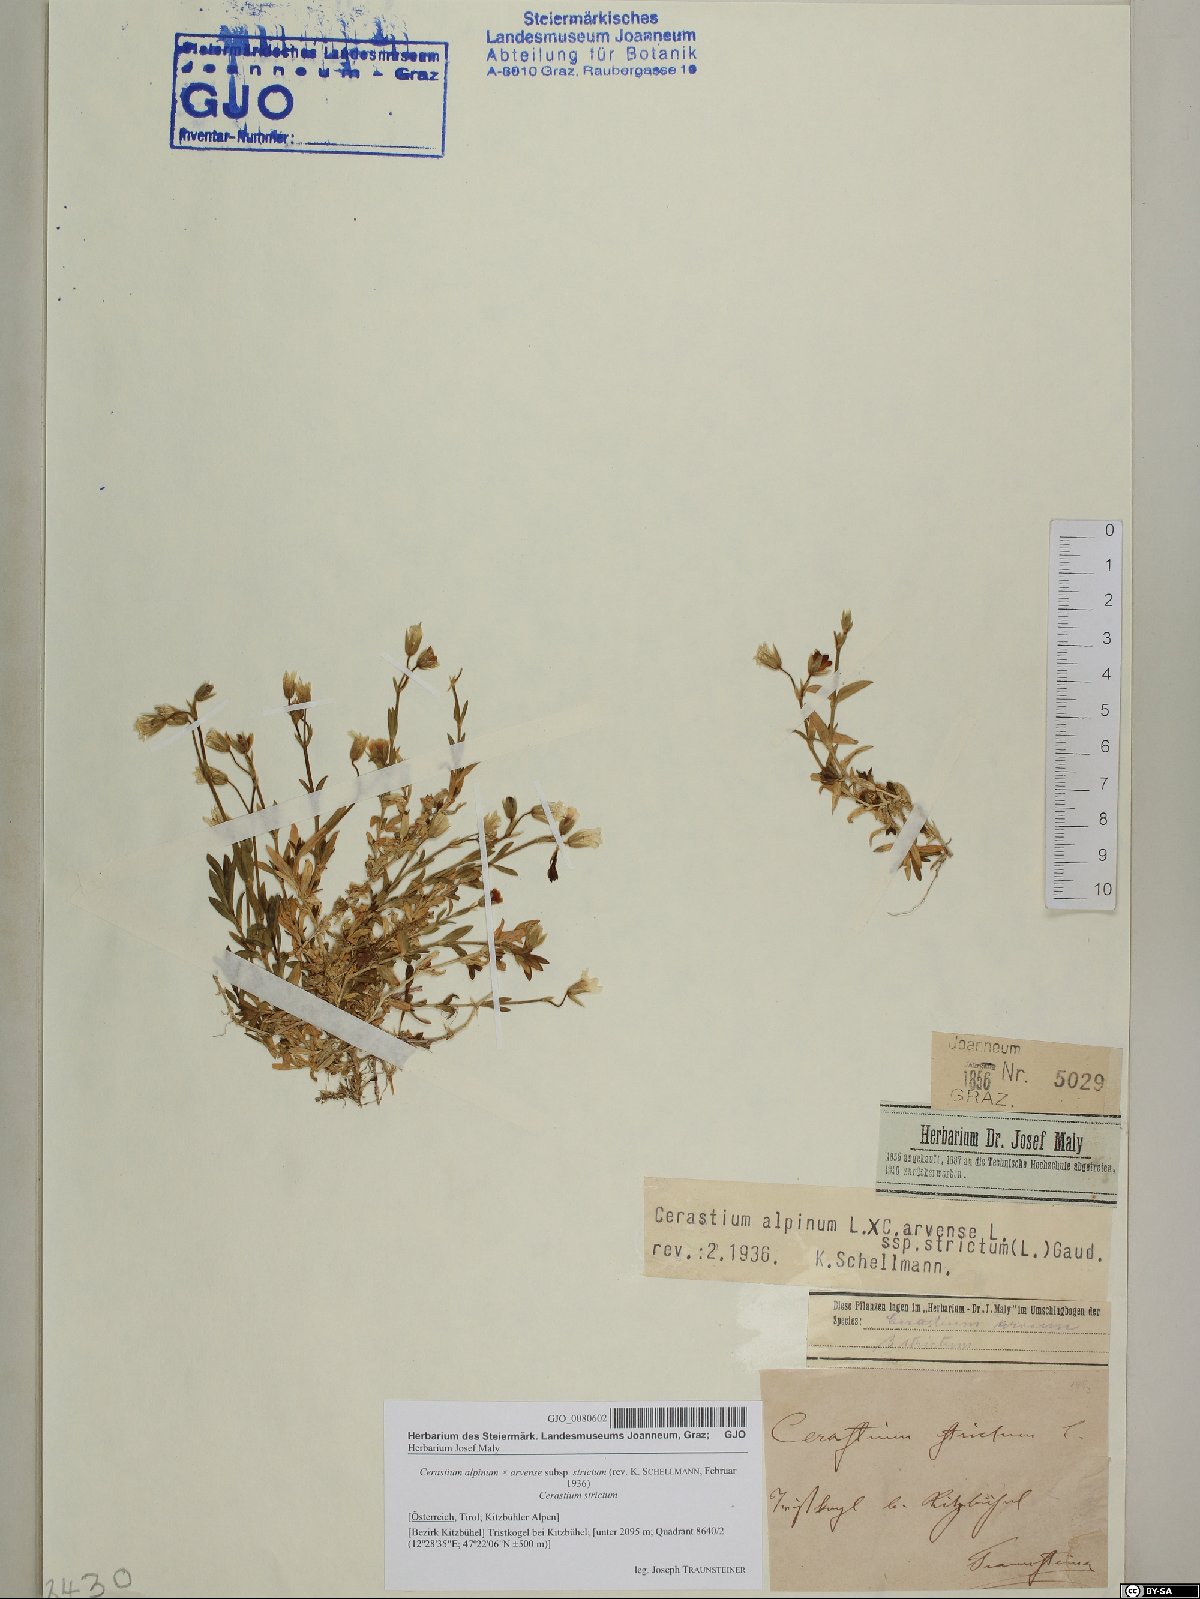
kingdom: Plantae
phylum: Tracheophyta
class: Magnoliopsida
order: Caryophyllales
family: Caryophyllaceae
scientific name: Caryophyllaceae
